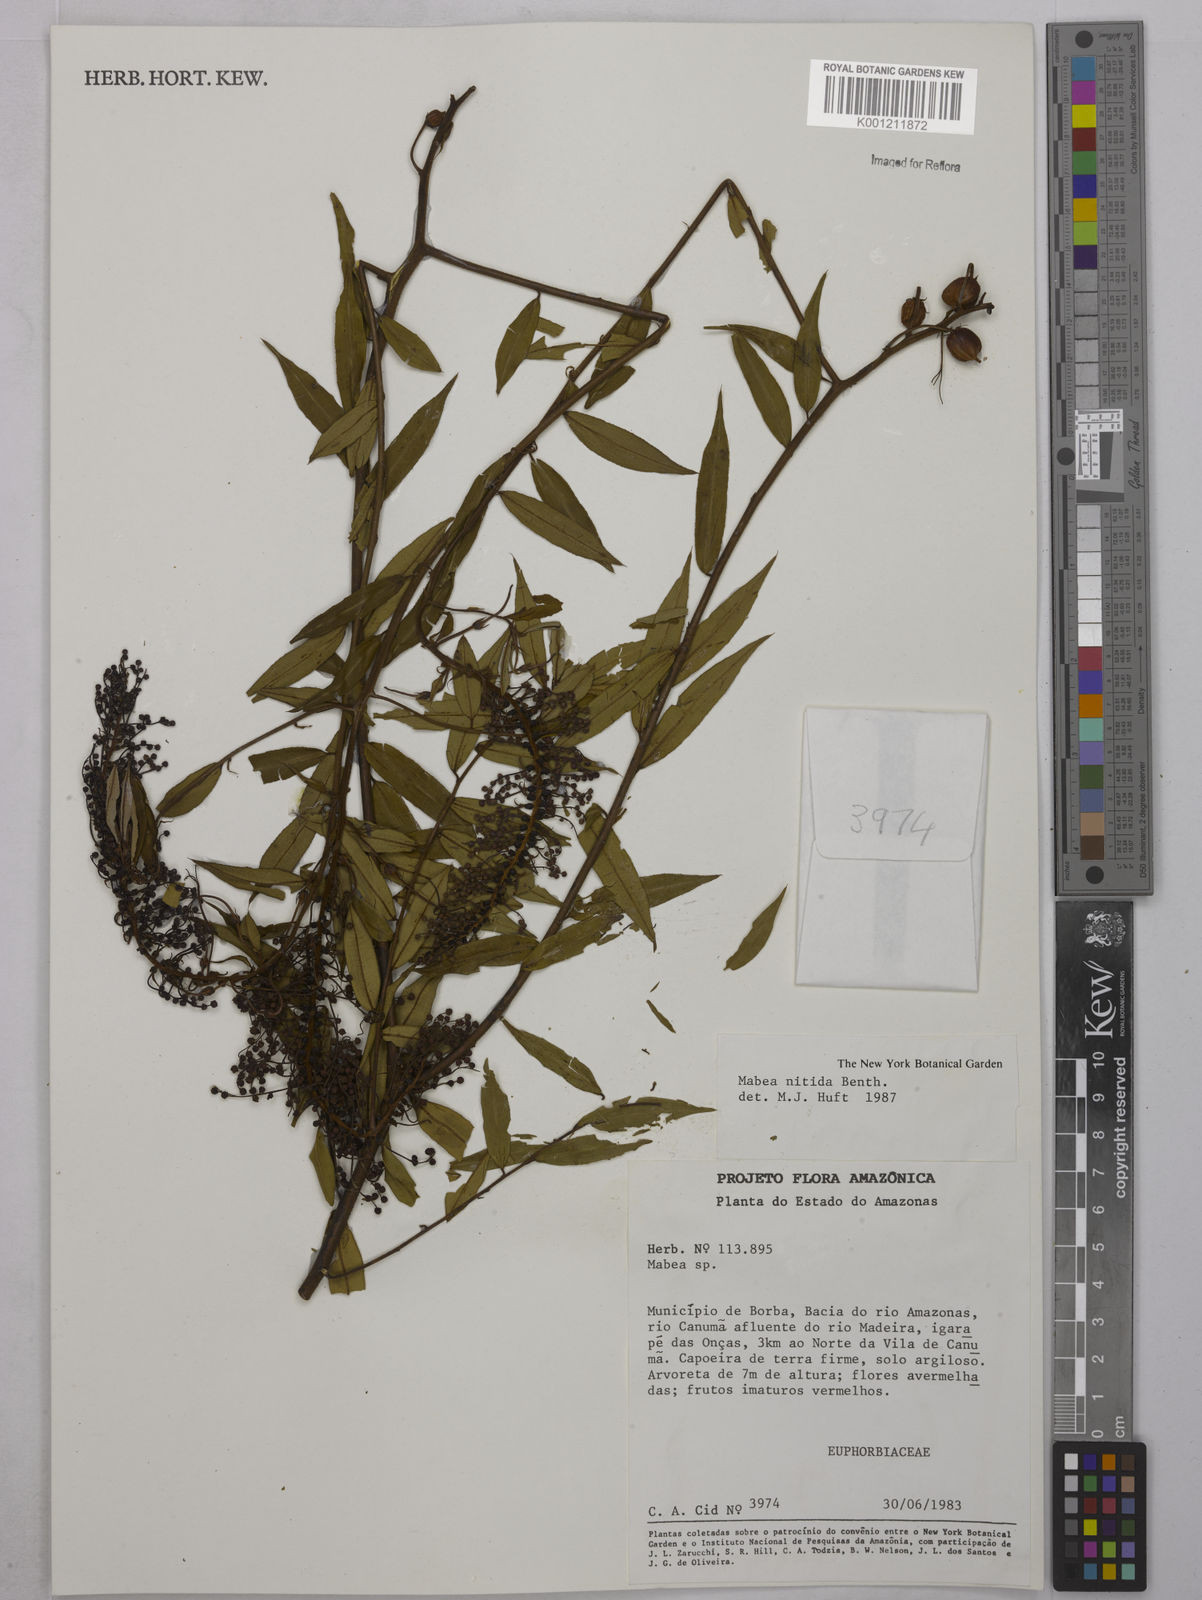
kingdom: Plantae
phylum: Tracheophyta
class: Magnoliopsida
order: Malpighiales
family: Euphorbiaceae
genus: Mabea
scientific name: Mabea nitida
